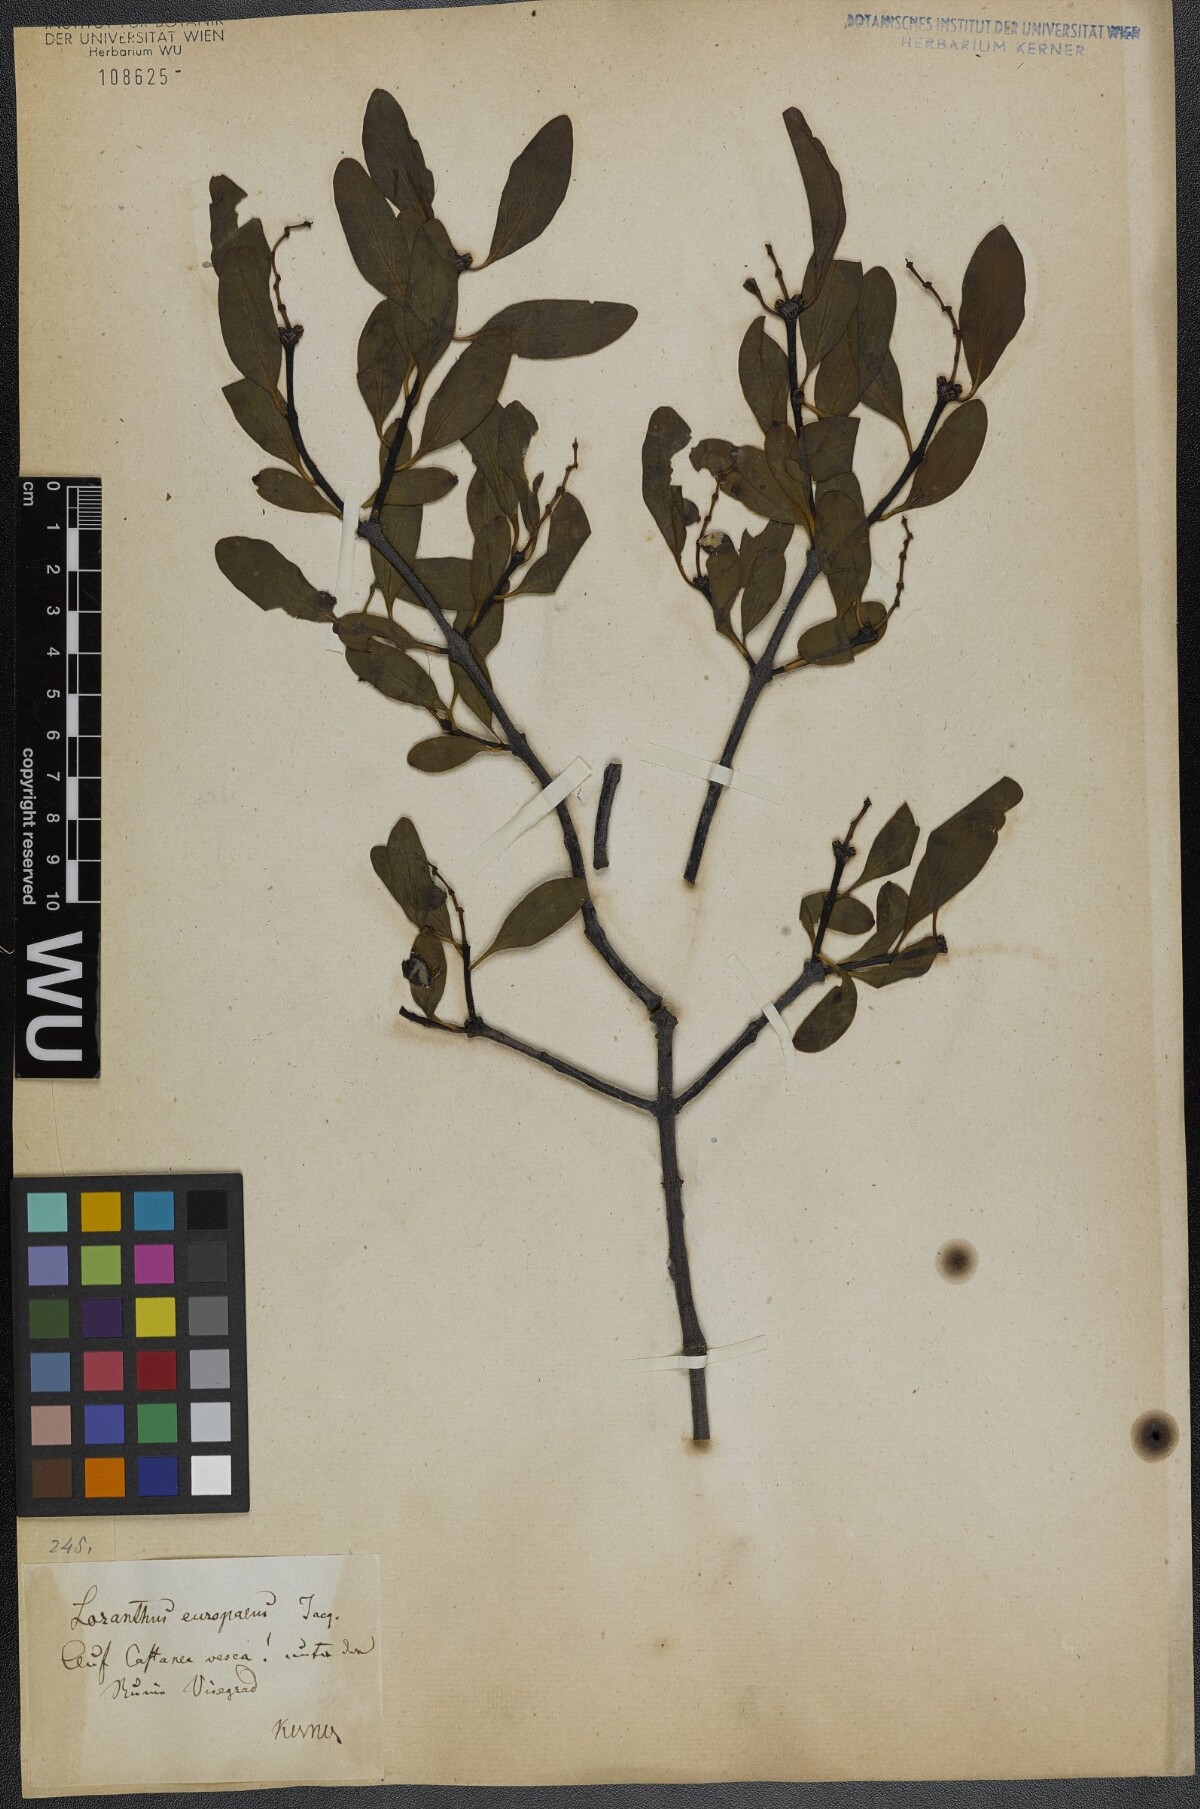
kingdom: Plantae
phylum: Tracheophyta
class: Magnoliopsida
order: Santalales
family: Loranthaceae
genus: Loranthus
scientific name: Loranthus europaeus
